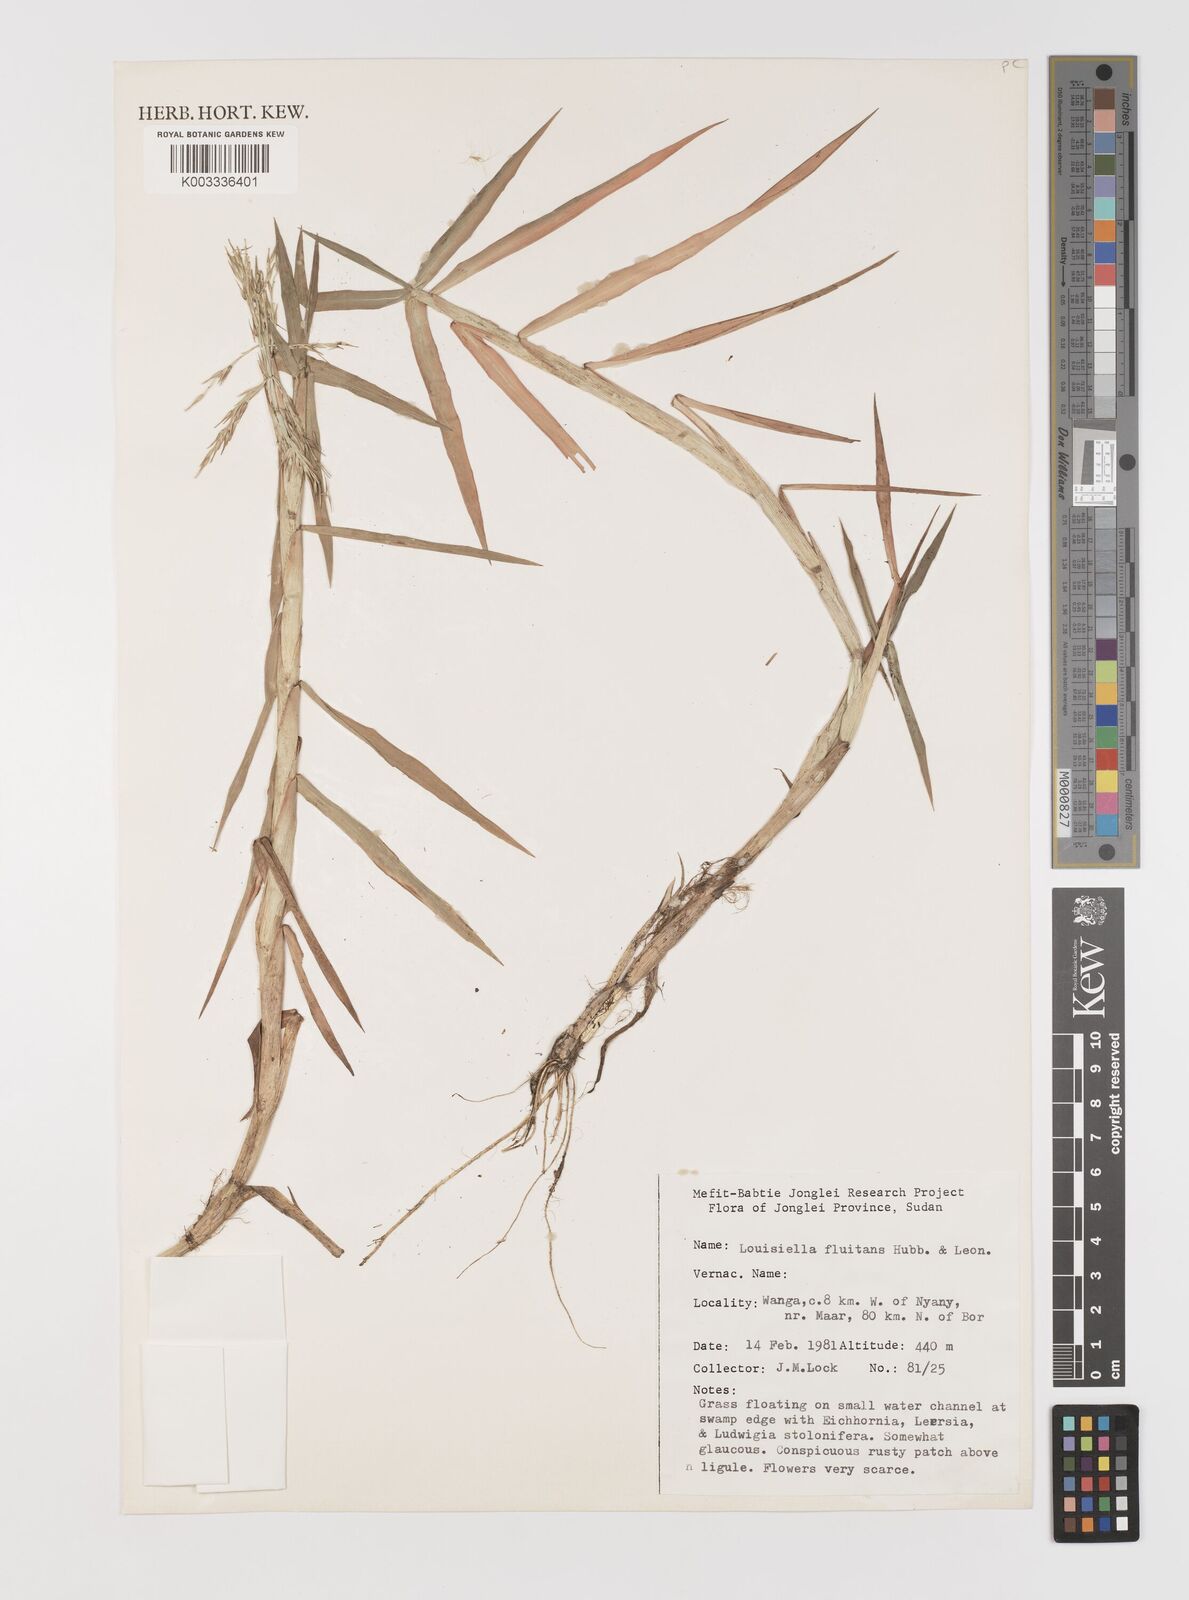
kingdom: Plantae
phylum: Tracheophyta
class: Liliopsida
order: Poales
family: Poaceae
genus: Louisiella
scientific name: Louisiella fluitans
